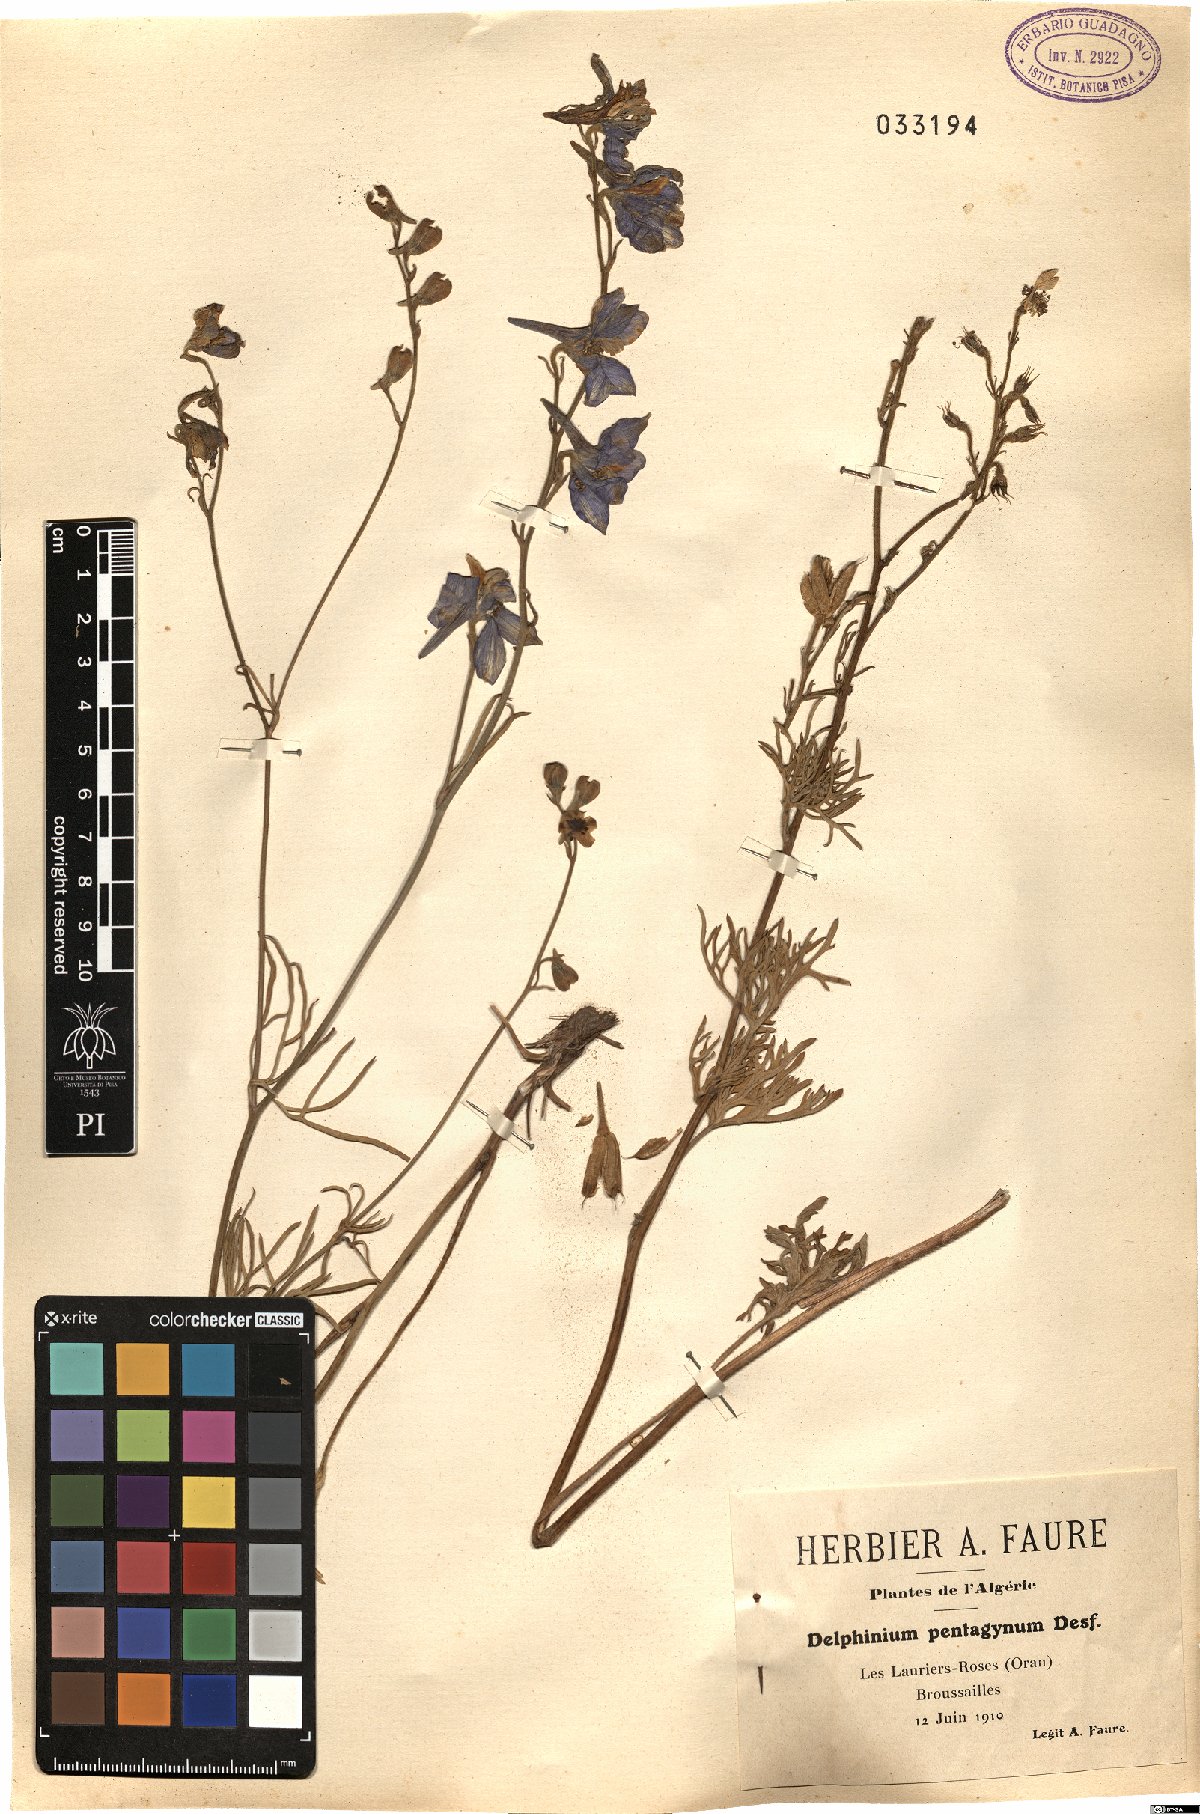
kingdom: Plantae
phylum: Tracheophyta
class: Magnoliopsida
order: Ranunculales
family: Ranunculaceae
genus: Delphinium
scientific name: Delphinium pentagynum
